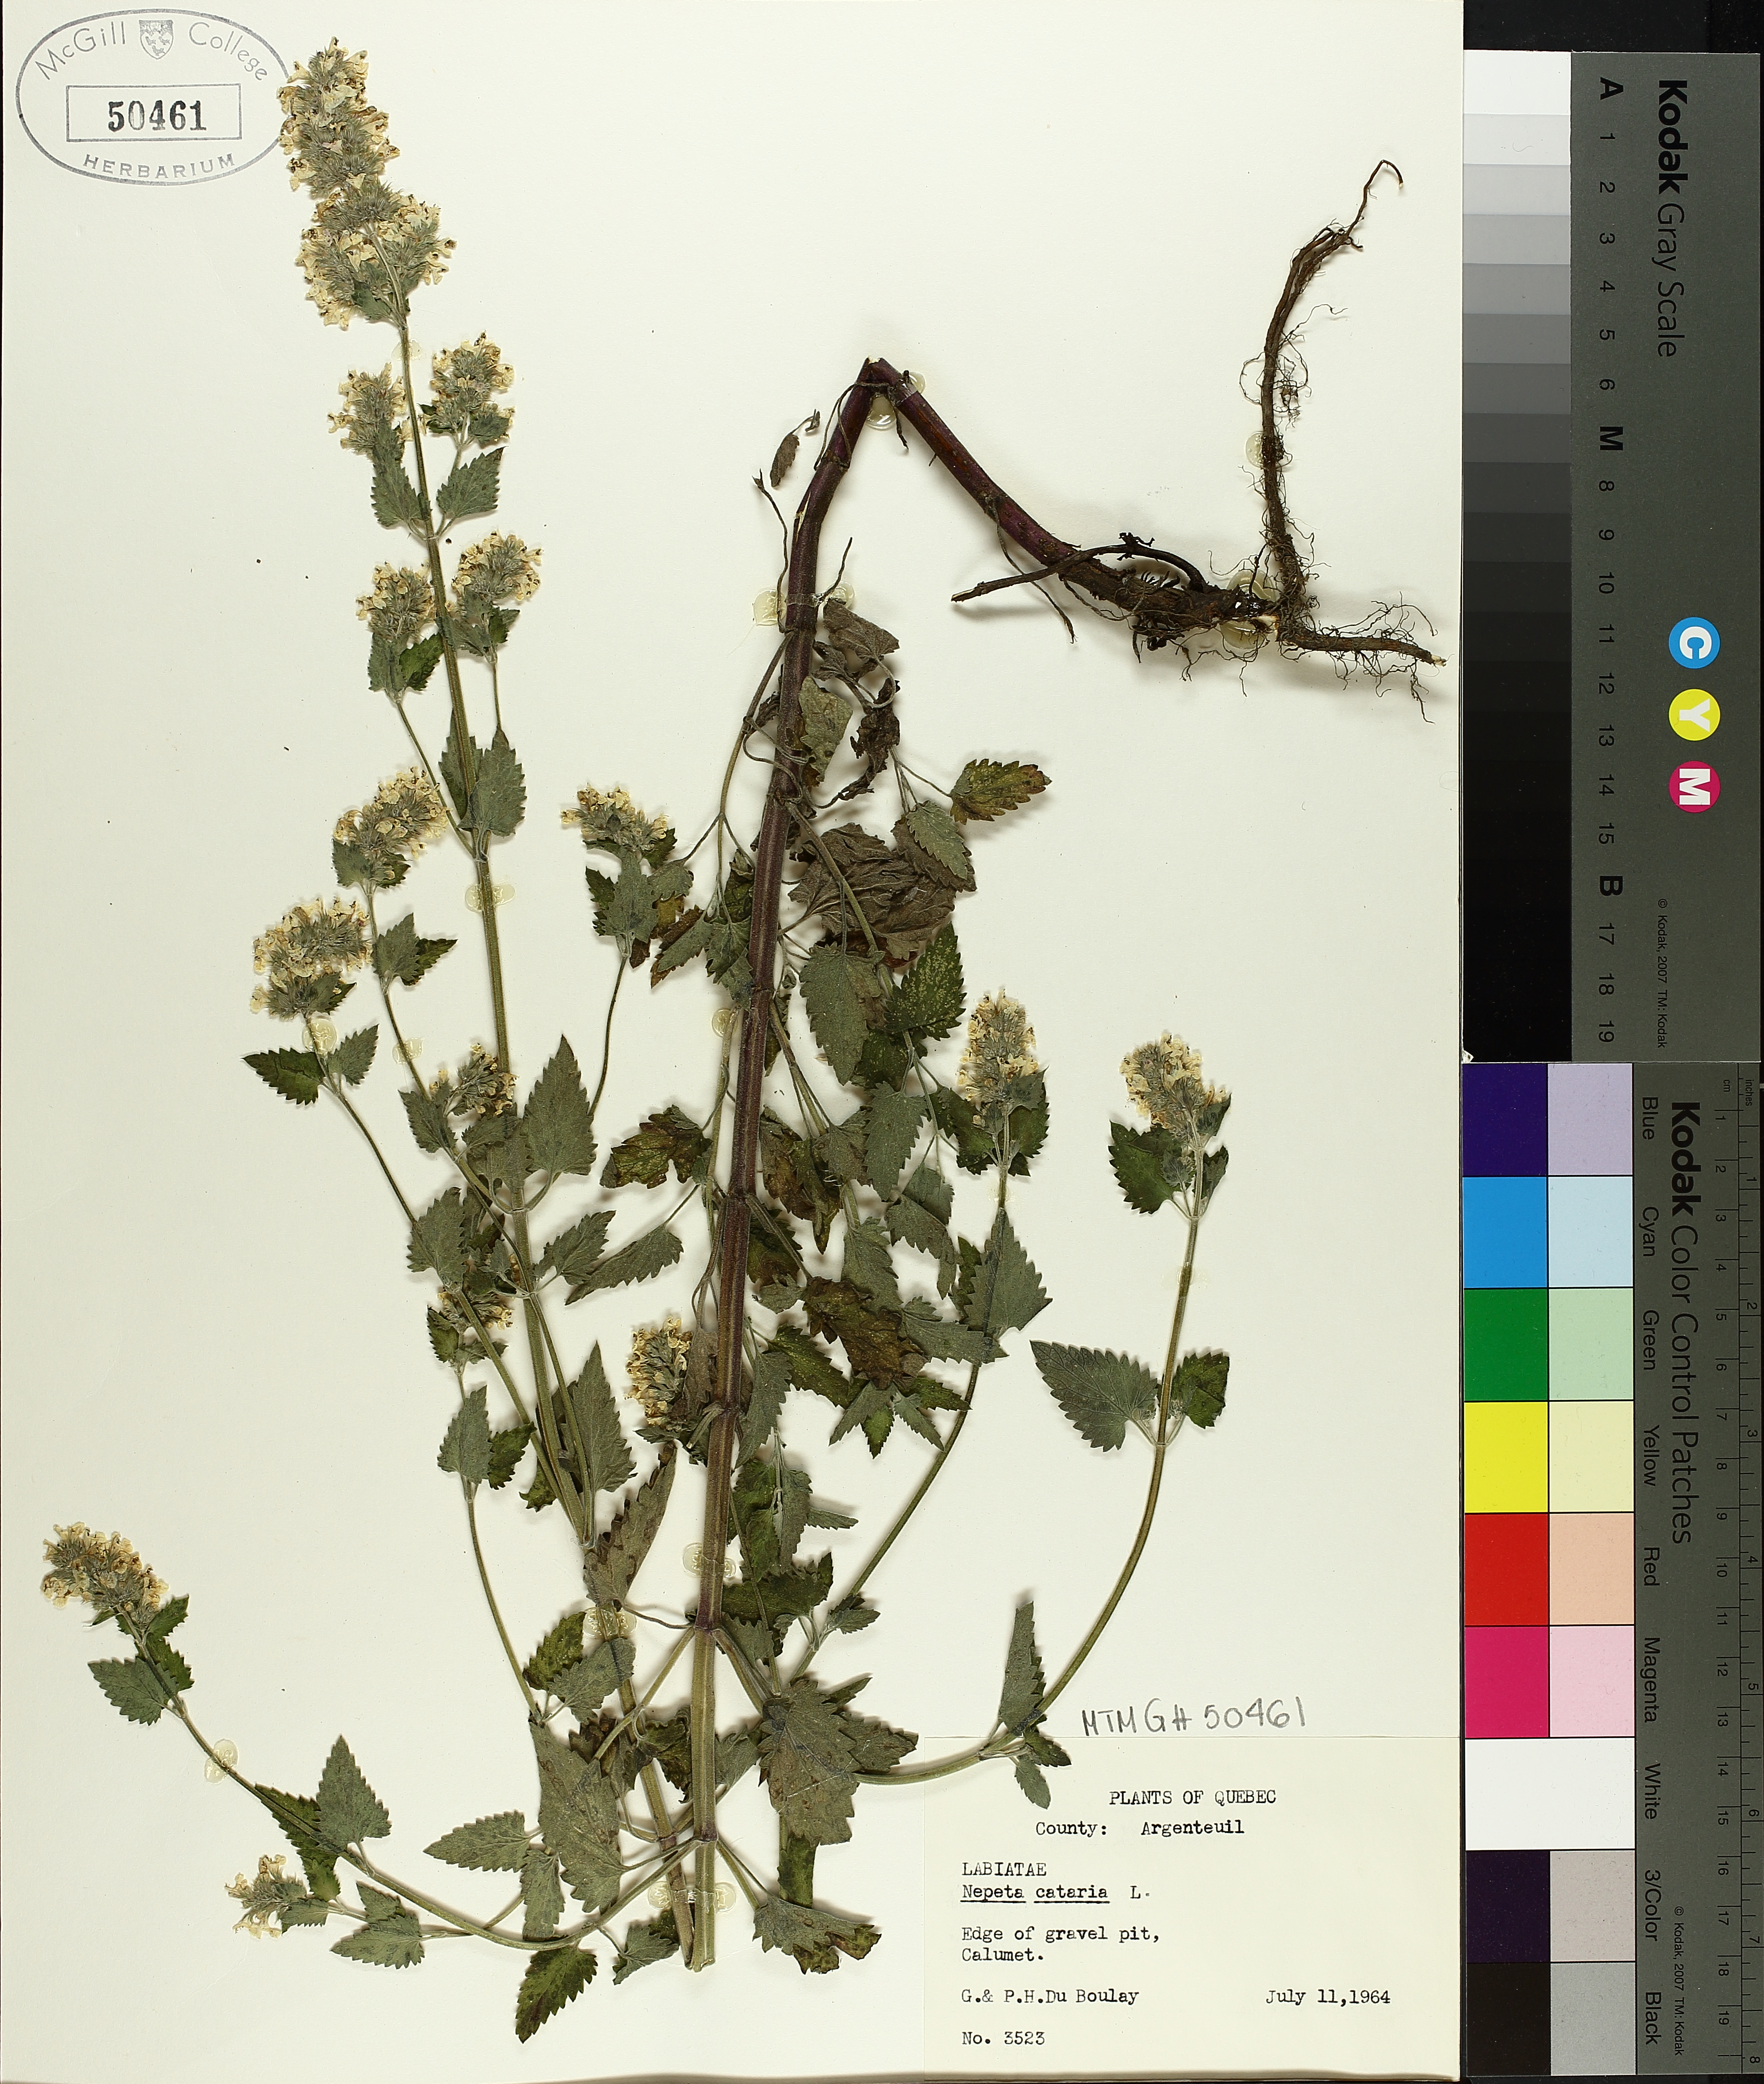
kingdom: Plantae
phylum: Tracheophyta
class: Magnoliopsida
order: Lamiales
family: Lamiaceae
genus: Nepeta
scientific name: Nepeta cataria
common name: Catnip
